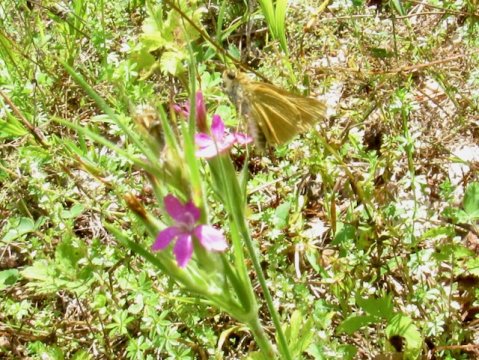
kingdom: Animalia
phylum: Arthropoda
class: Insecta
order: Lepidoptera
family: Hesperiidae
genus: Atrytone
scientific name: Atrytone delaware
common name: Delaware Skipper
